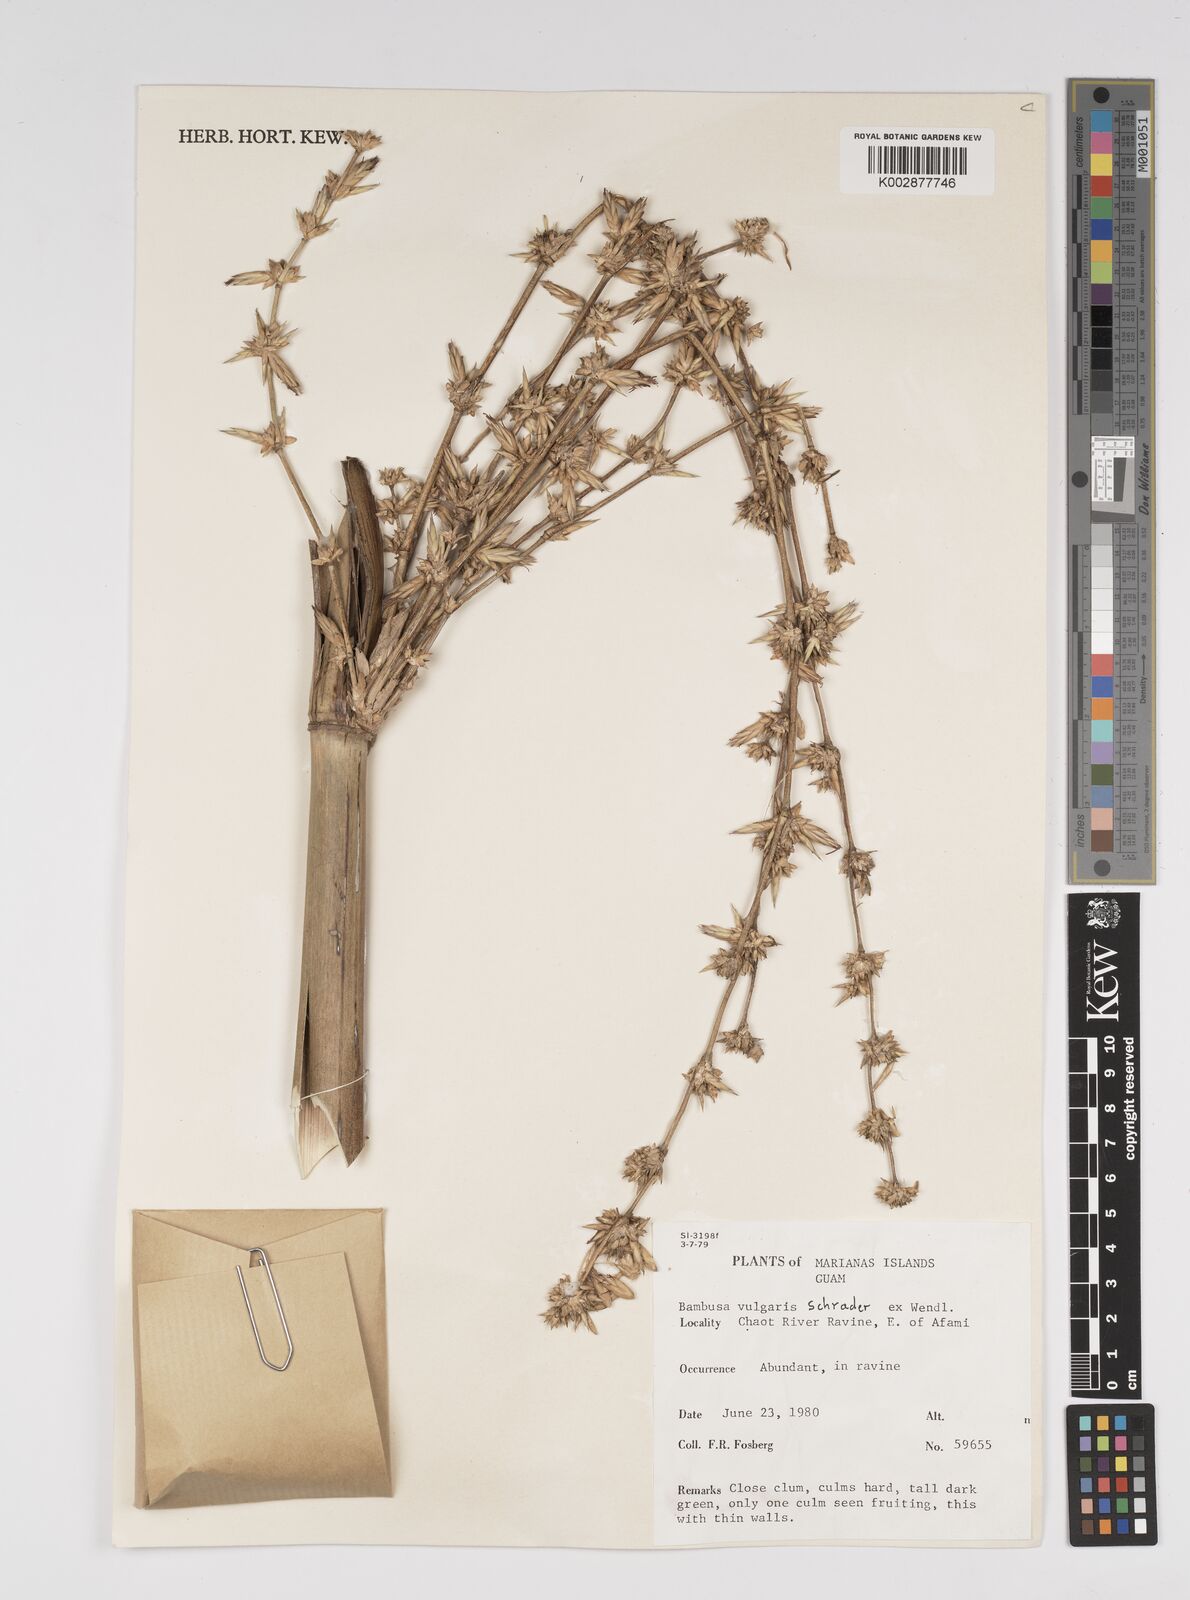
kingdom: Plantae
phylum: Tracheophyta
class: Liliopsida
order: Poales
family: Poaceae
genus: Bambusa
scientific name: Bambusa vulgaris
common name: Common bamboo
